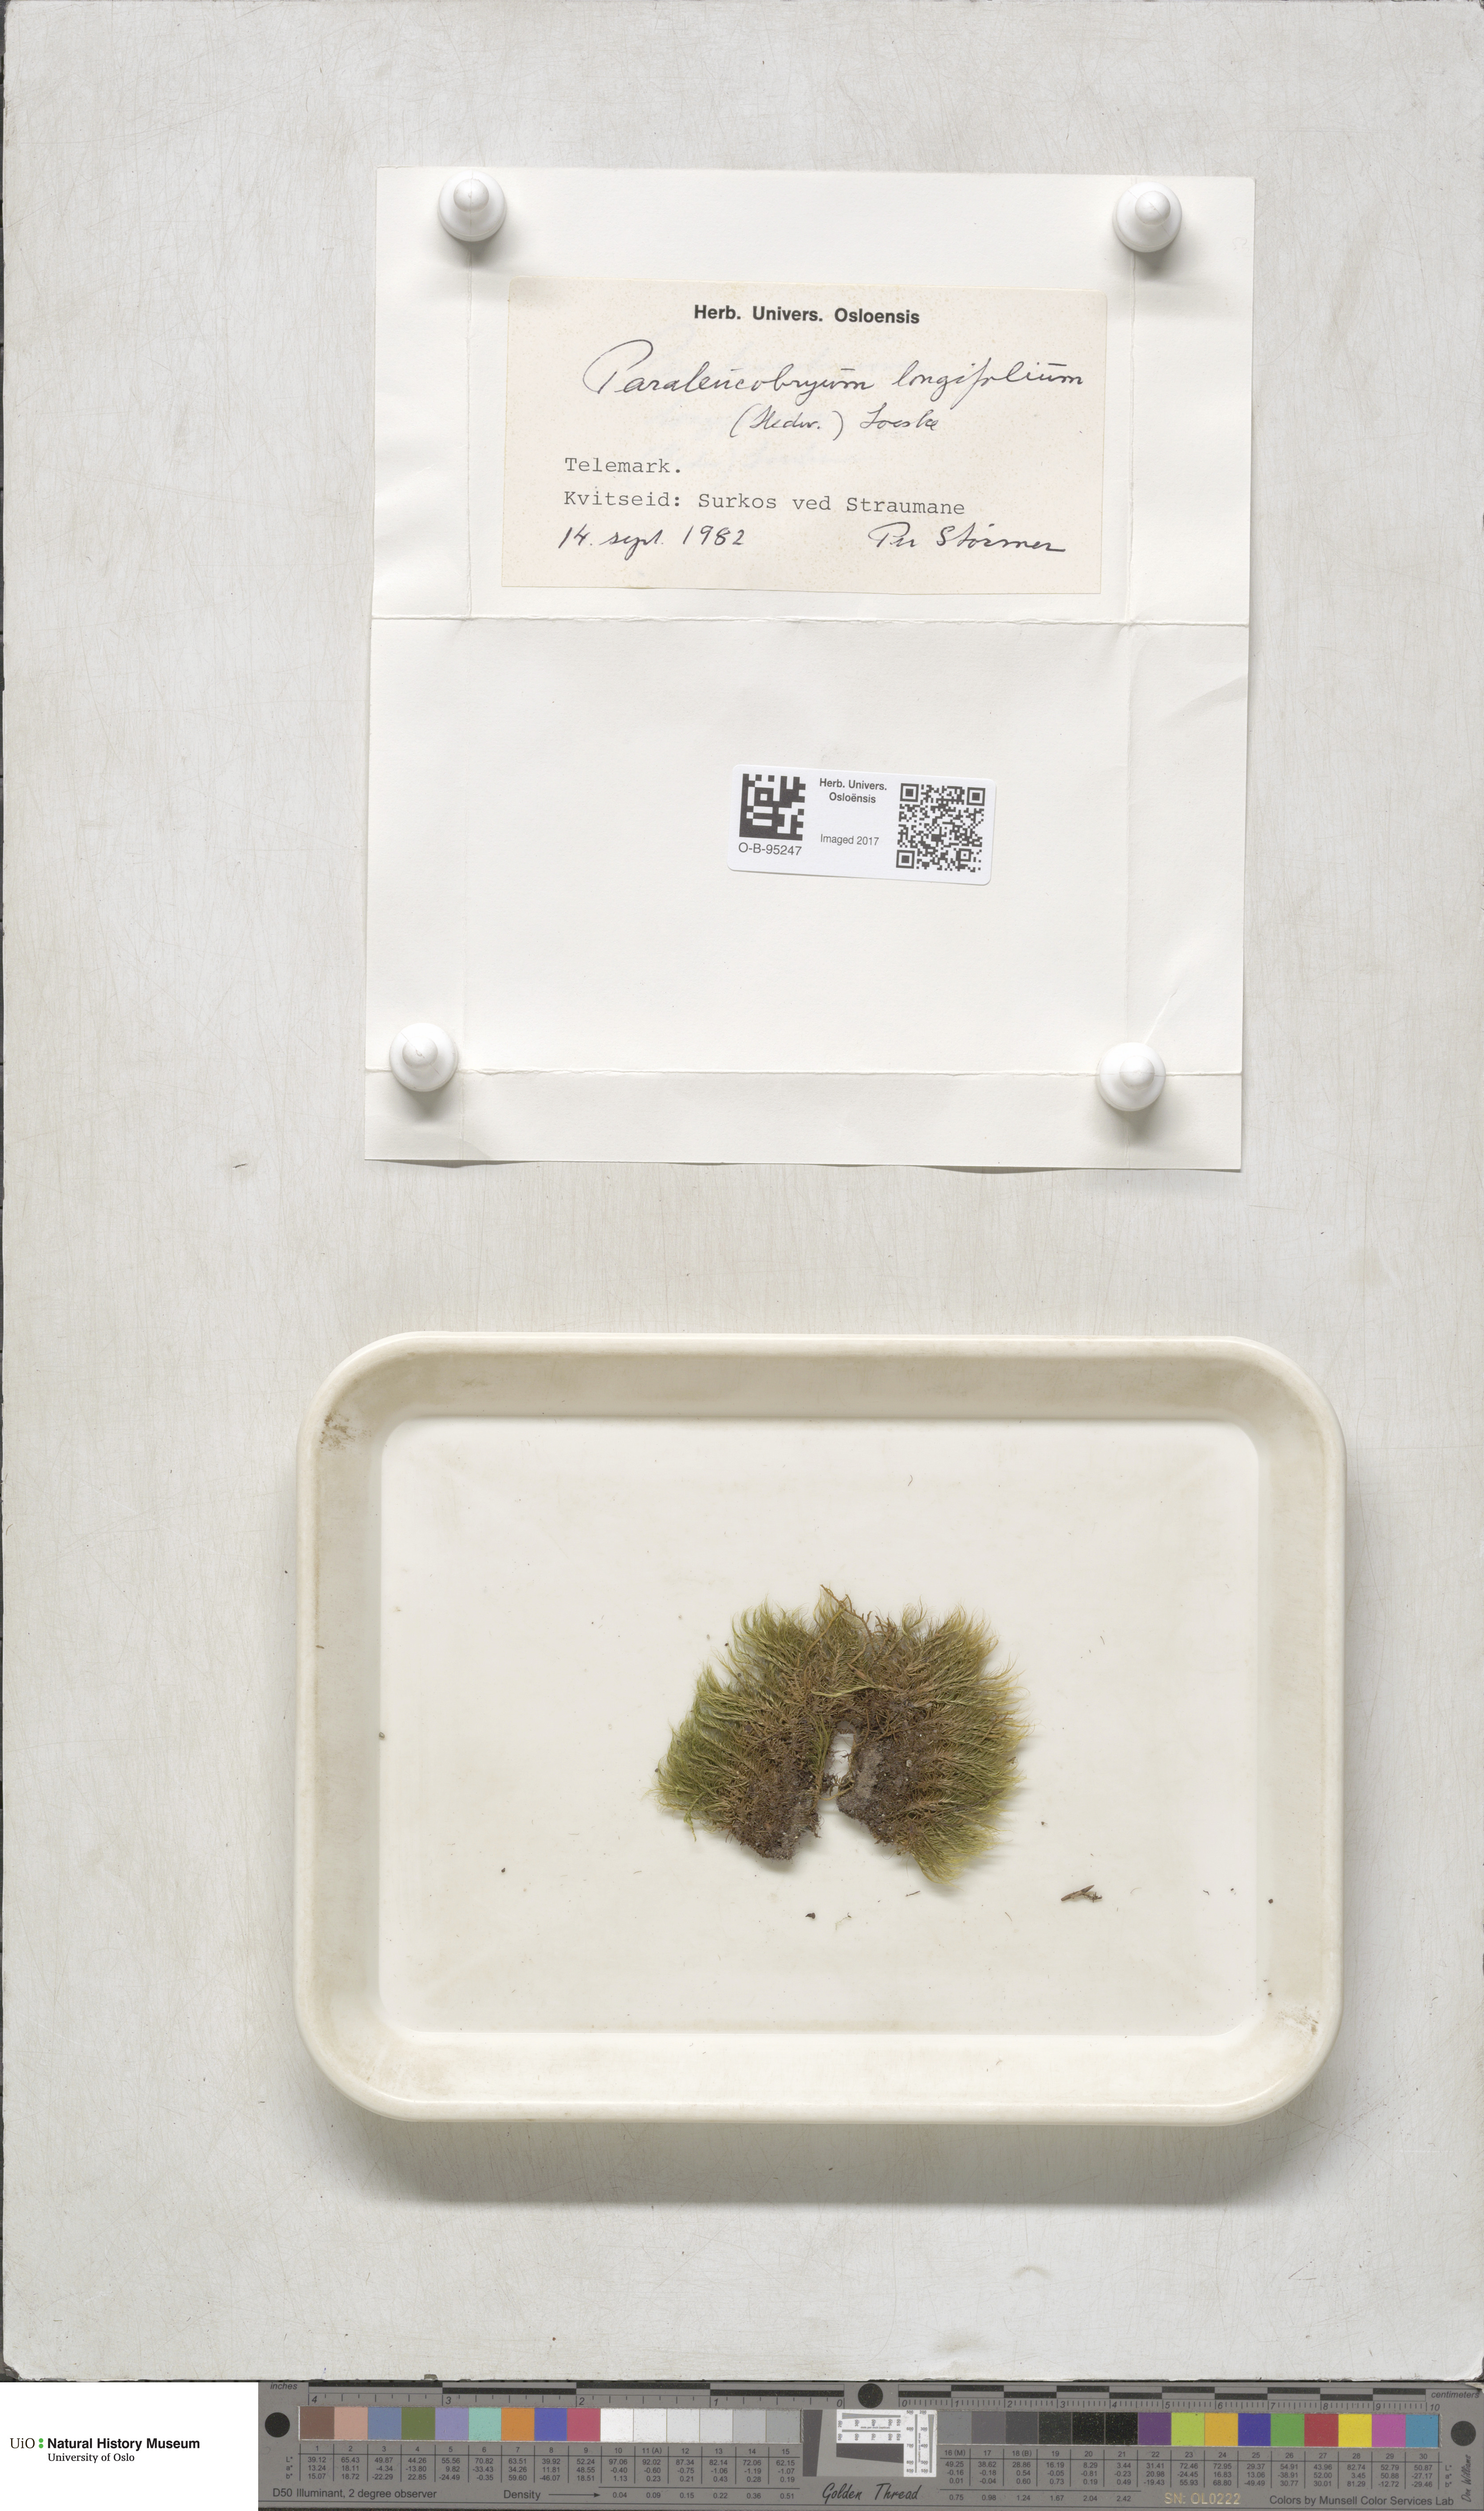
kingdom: Plantae
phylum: Bryophyta
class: Bryopsida
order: Dicranales
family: Dicranaceae
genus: Paraleucobryum
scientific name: Paraleucobryum longifolium
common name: Long-leaved fork moss
